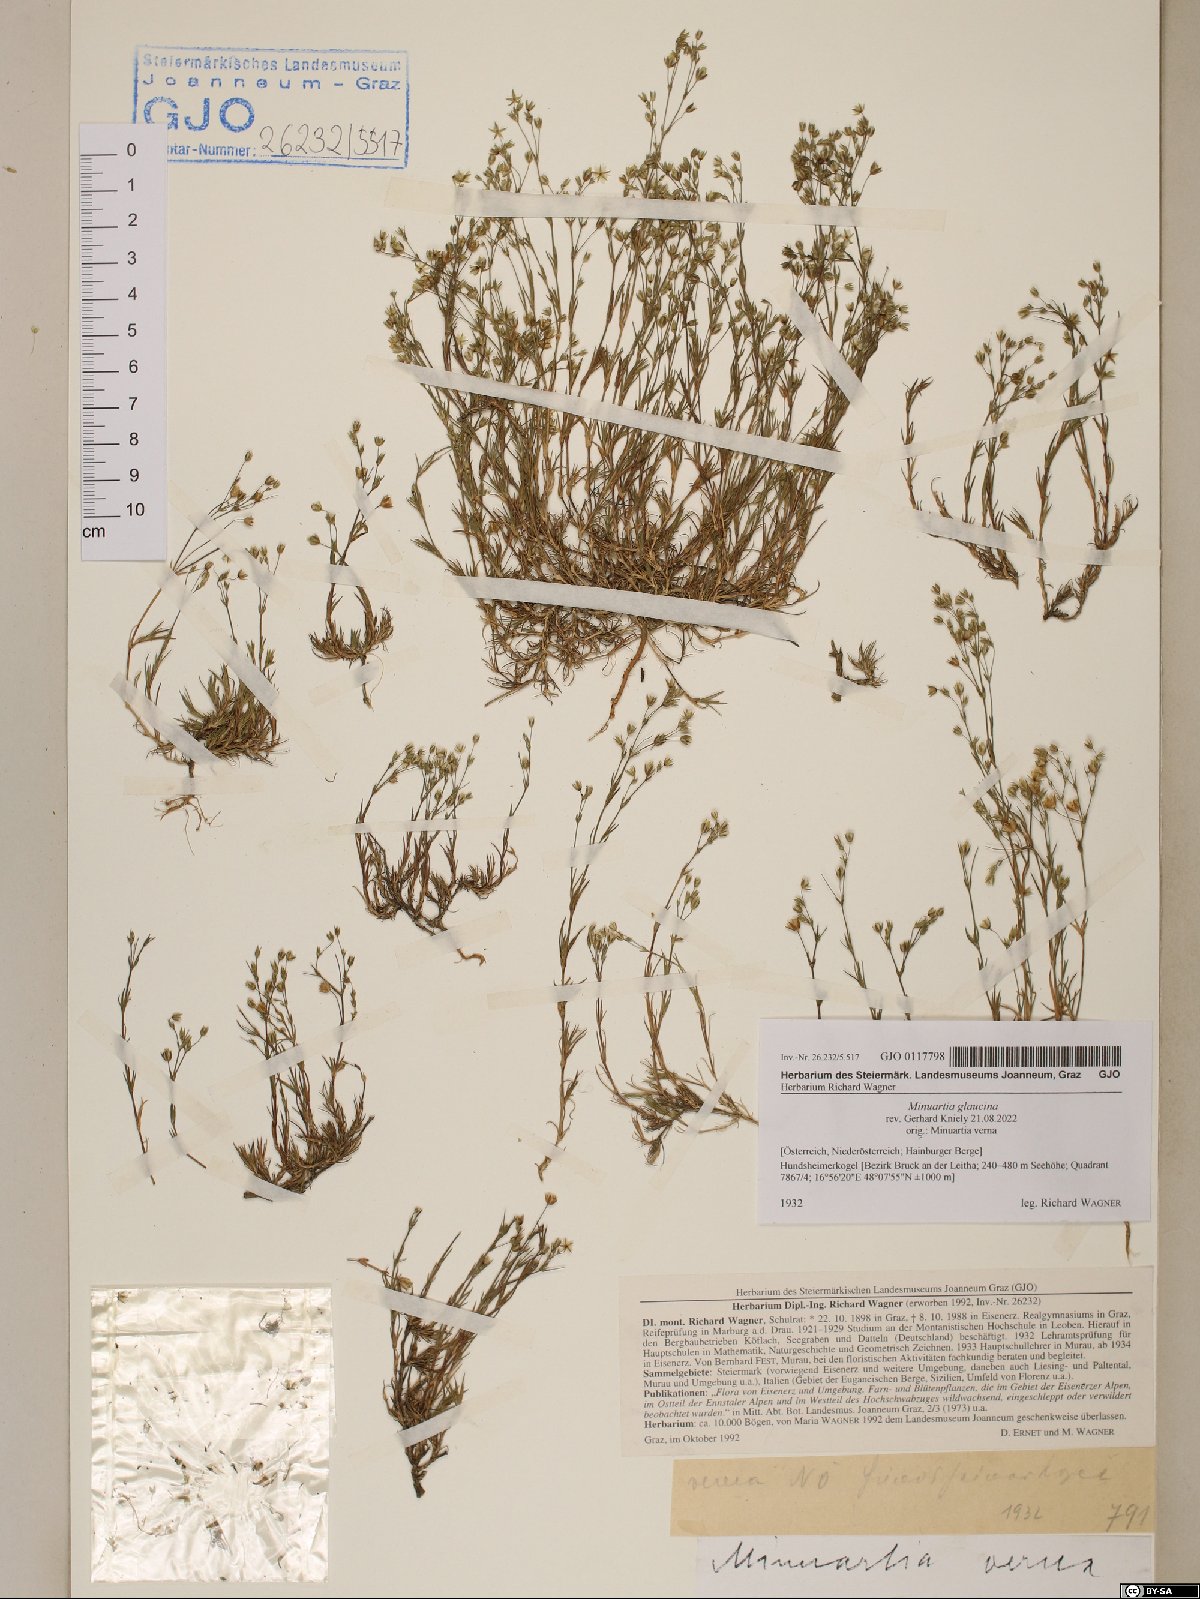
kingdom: Plantae
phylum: Tracheophyta
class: Magnoliopsida
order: Caryophyllales
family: Caryophyllaceae
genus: Sabulina
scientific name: Sabulina glaucina
